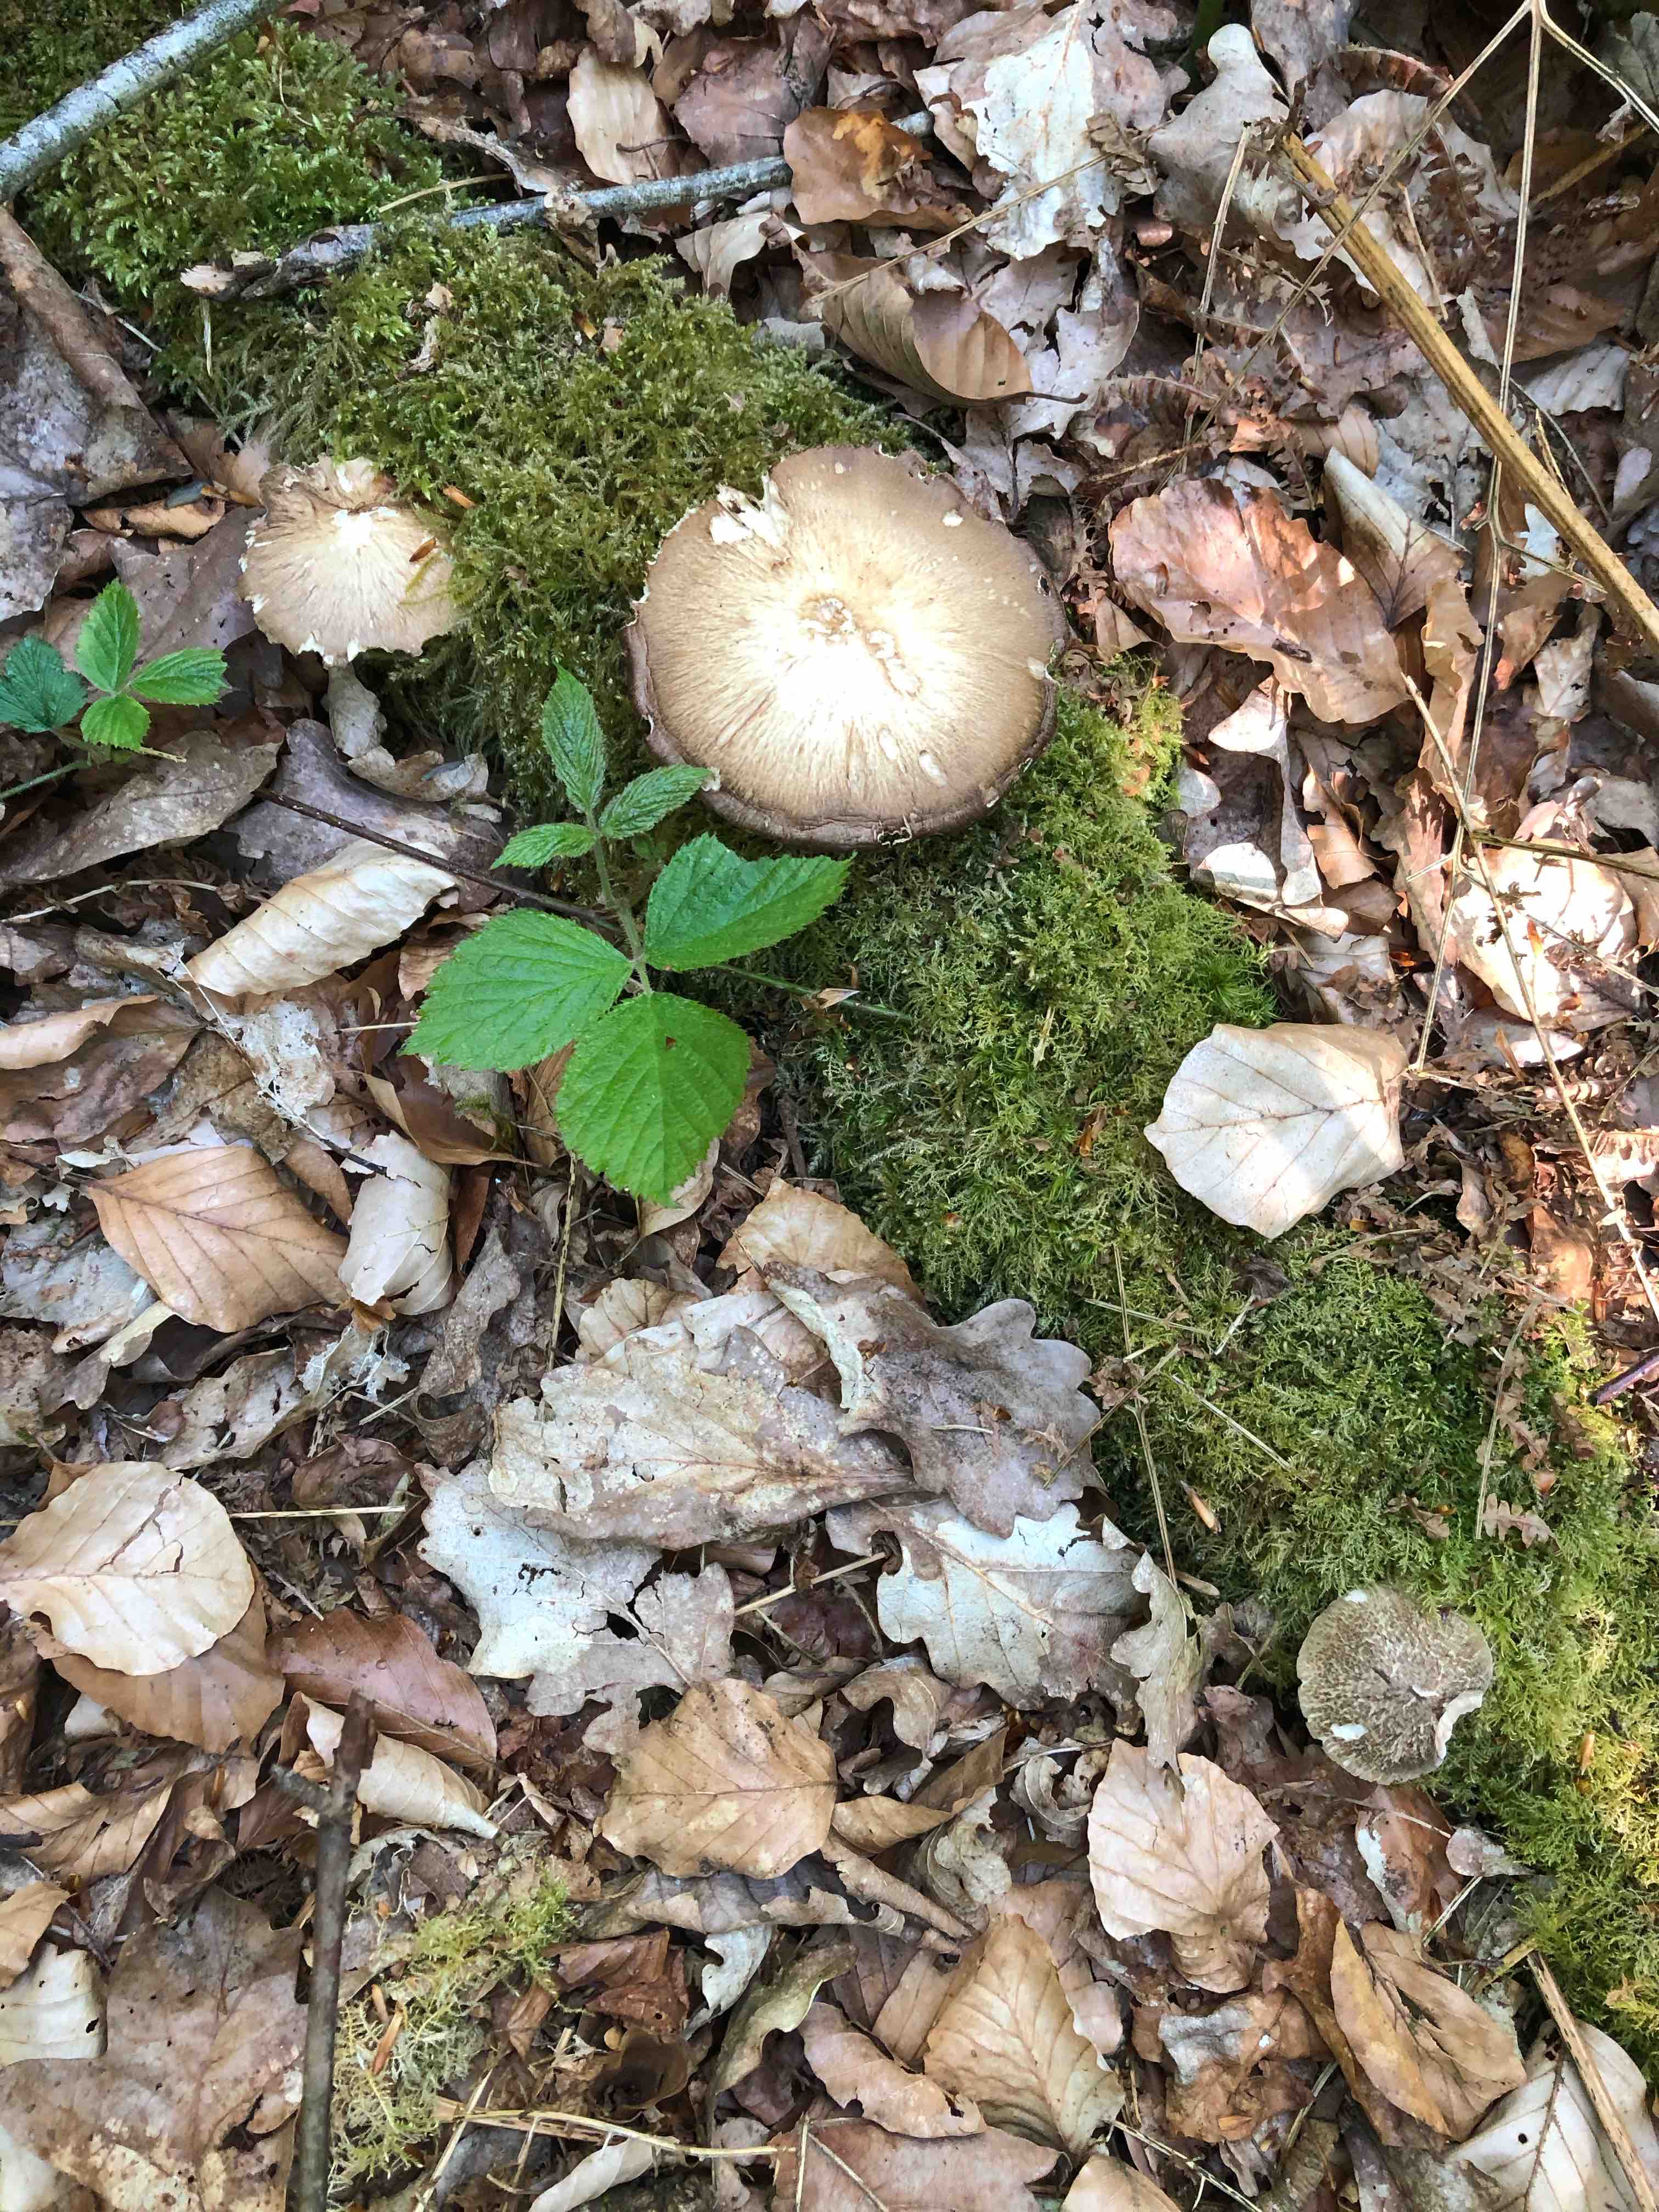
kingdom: Fungi
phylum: Basidiomycota
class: Agaricomycetes
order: Polyporales
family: Polyporaceae
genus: Lentinus
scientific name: Lentinus substrictus
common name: forårs-stilkporesvamp
